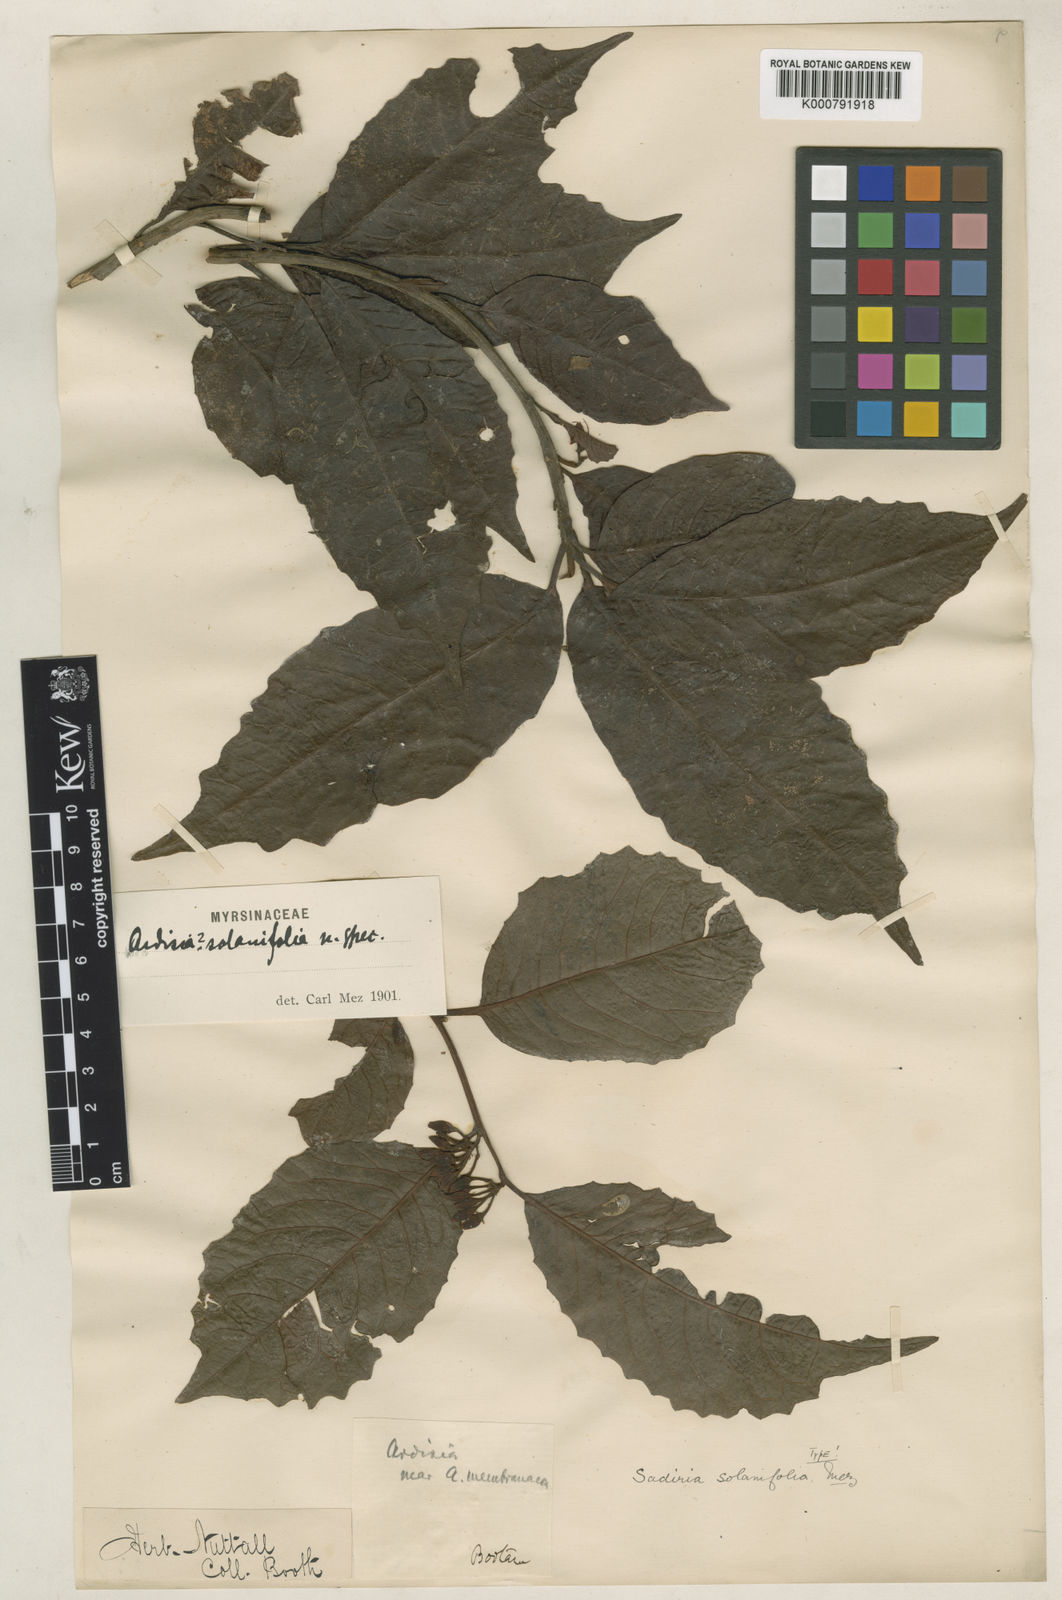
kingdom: Plantae
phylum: Tracheophyta
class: Magnoliopsida
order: Ericales
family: Primulaceae
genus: Amblyanthopsis
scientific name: Amblyanthopsis membranacea
